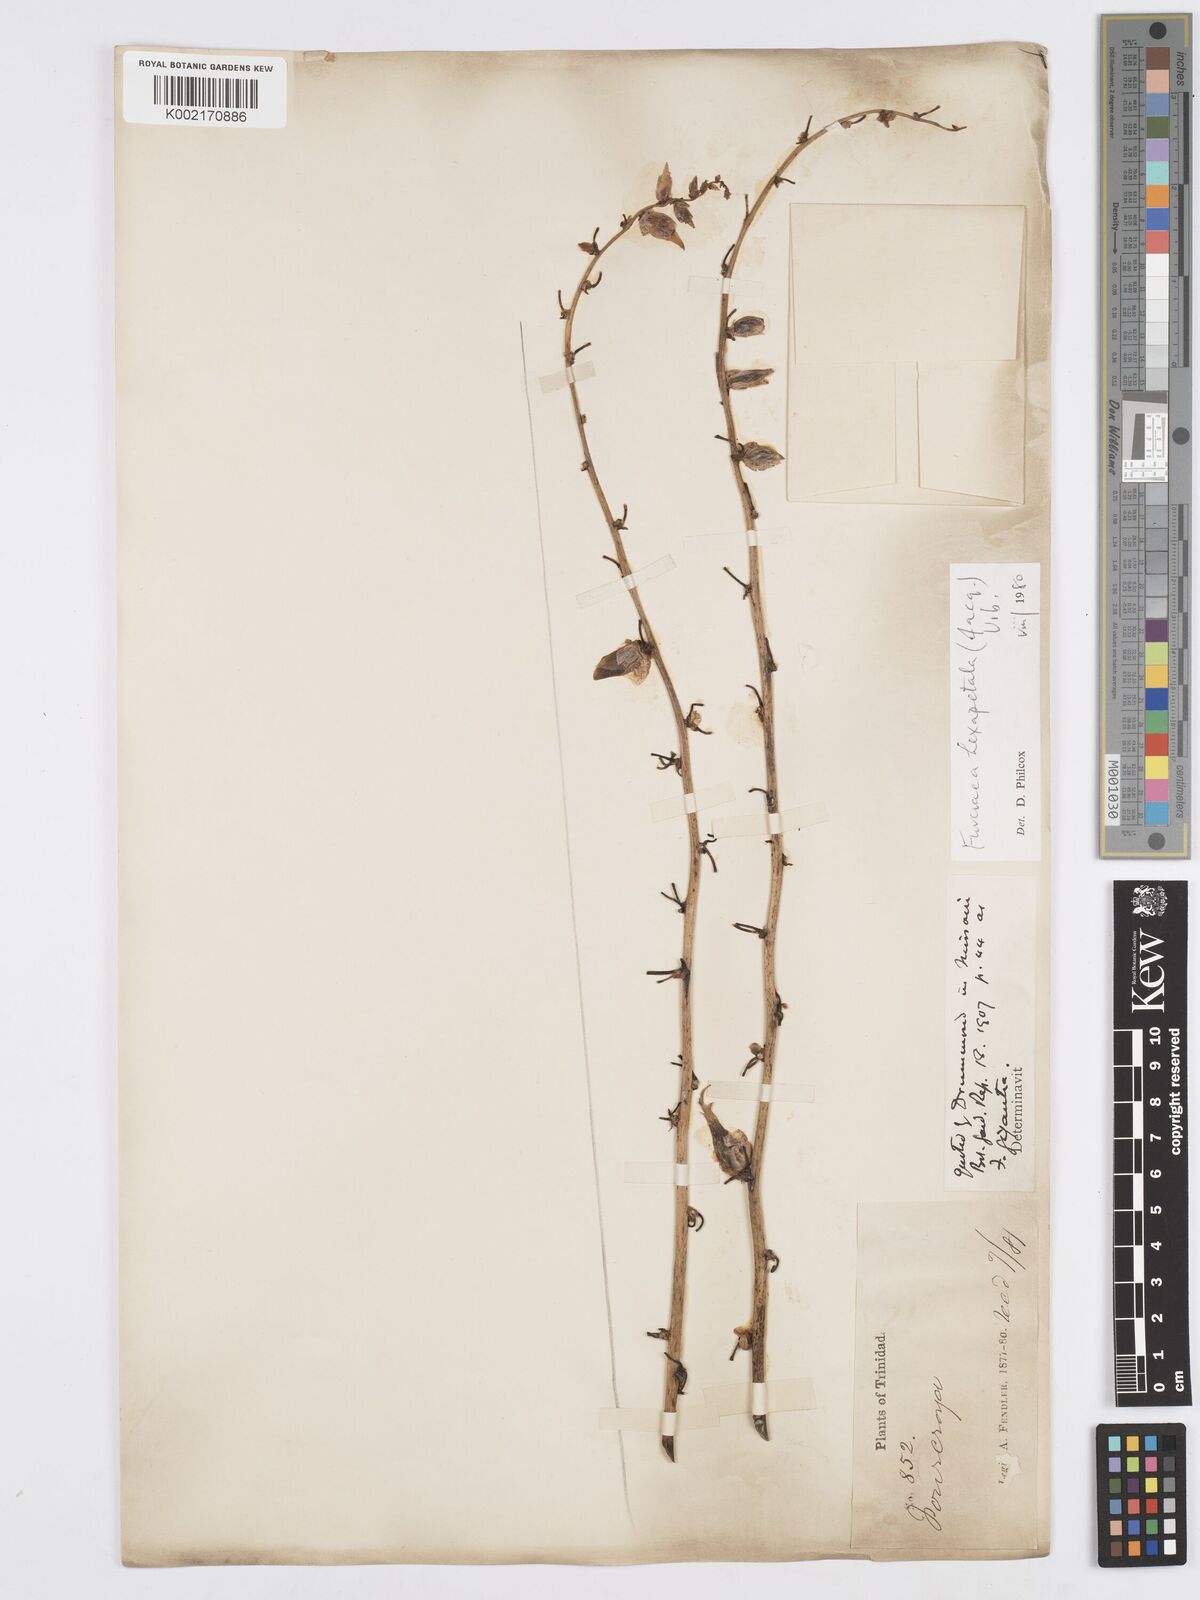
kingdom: Plantae
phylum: Tracheophyta
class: Liliopsida
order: Asparagales
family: Asparagaceae
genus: Furcraea
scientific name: Furcraea hexapetala
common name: Cuban-hemp
